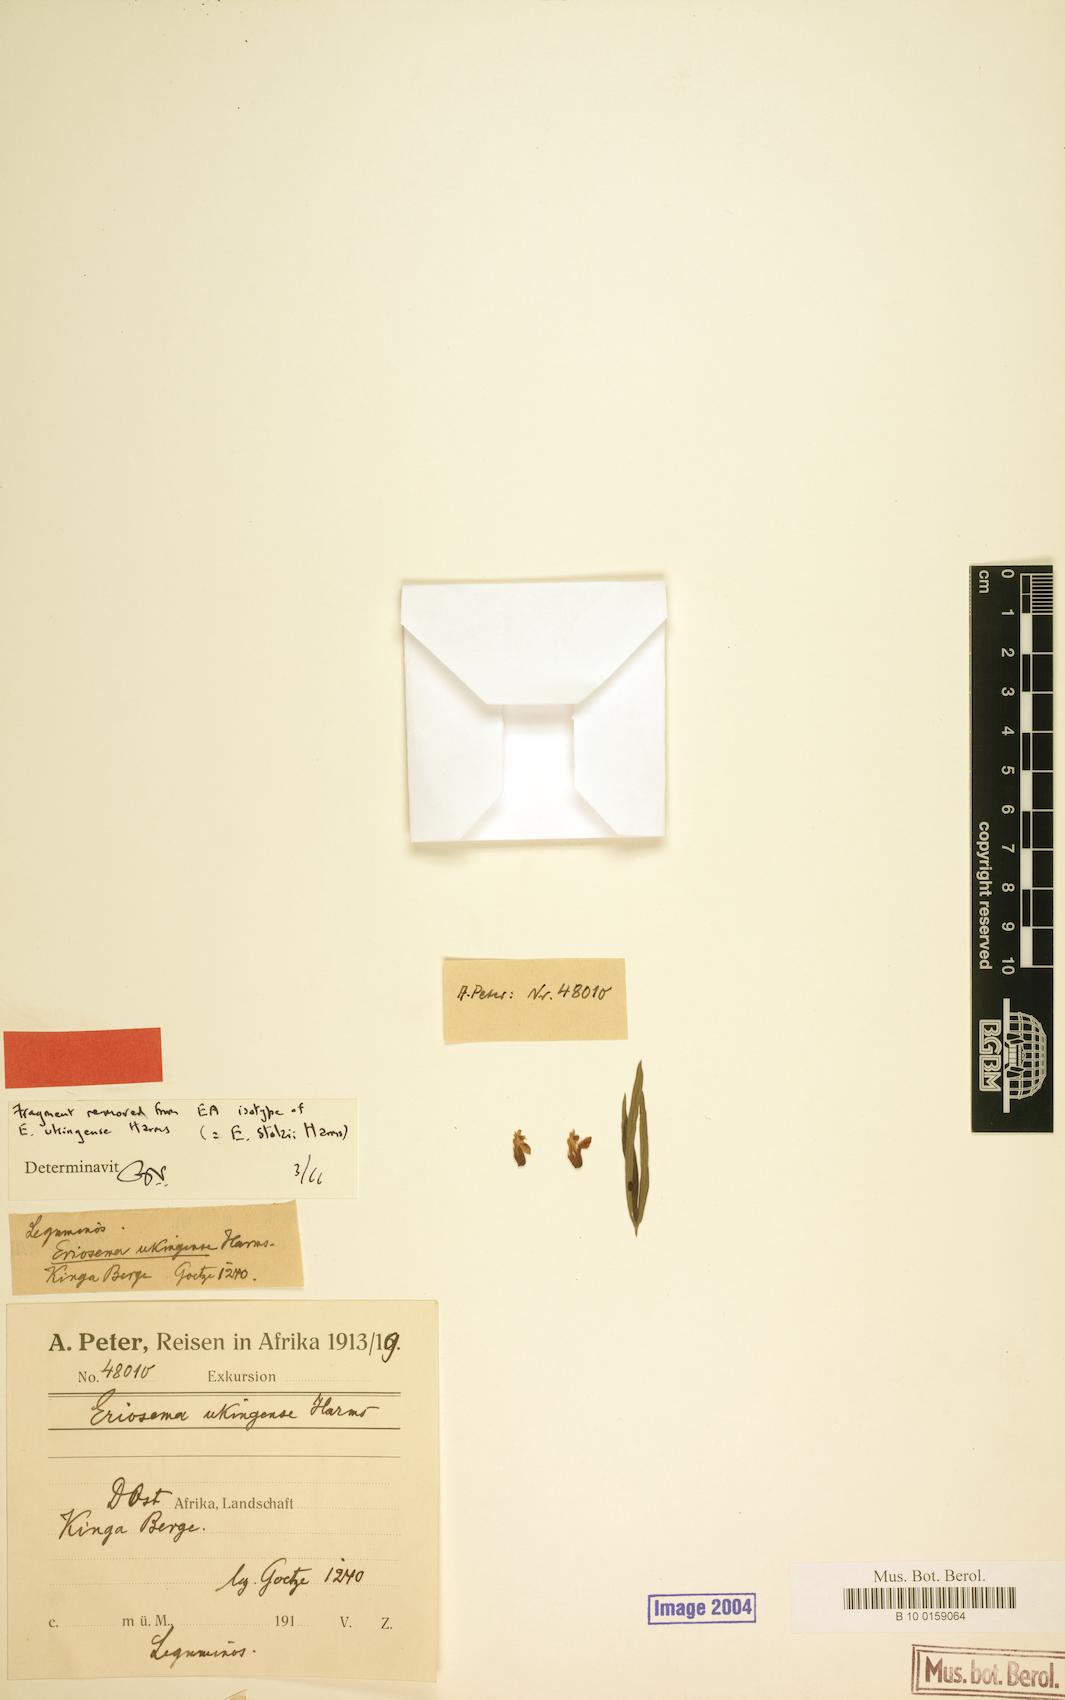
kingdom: Plantae
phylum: Tracheophyta
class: Magnoliopsida
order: Fabales
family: Fabaceae
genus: Eriosema
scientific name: Eriosema ukingense
